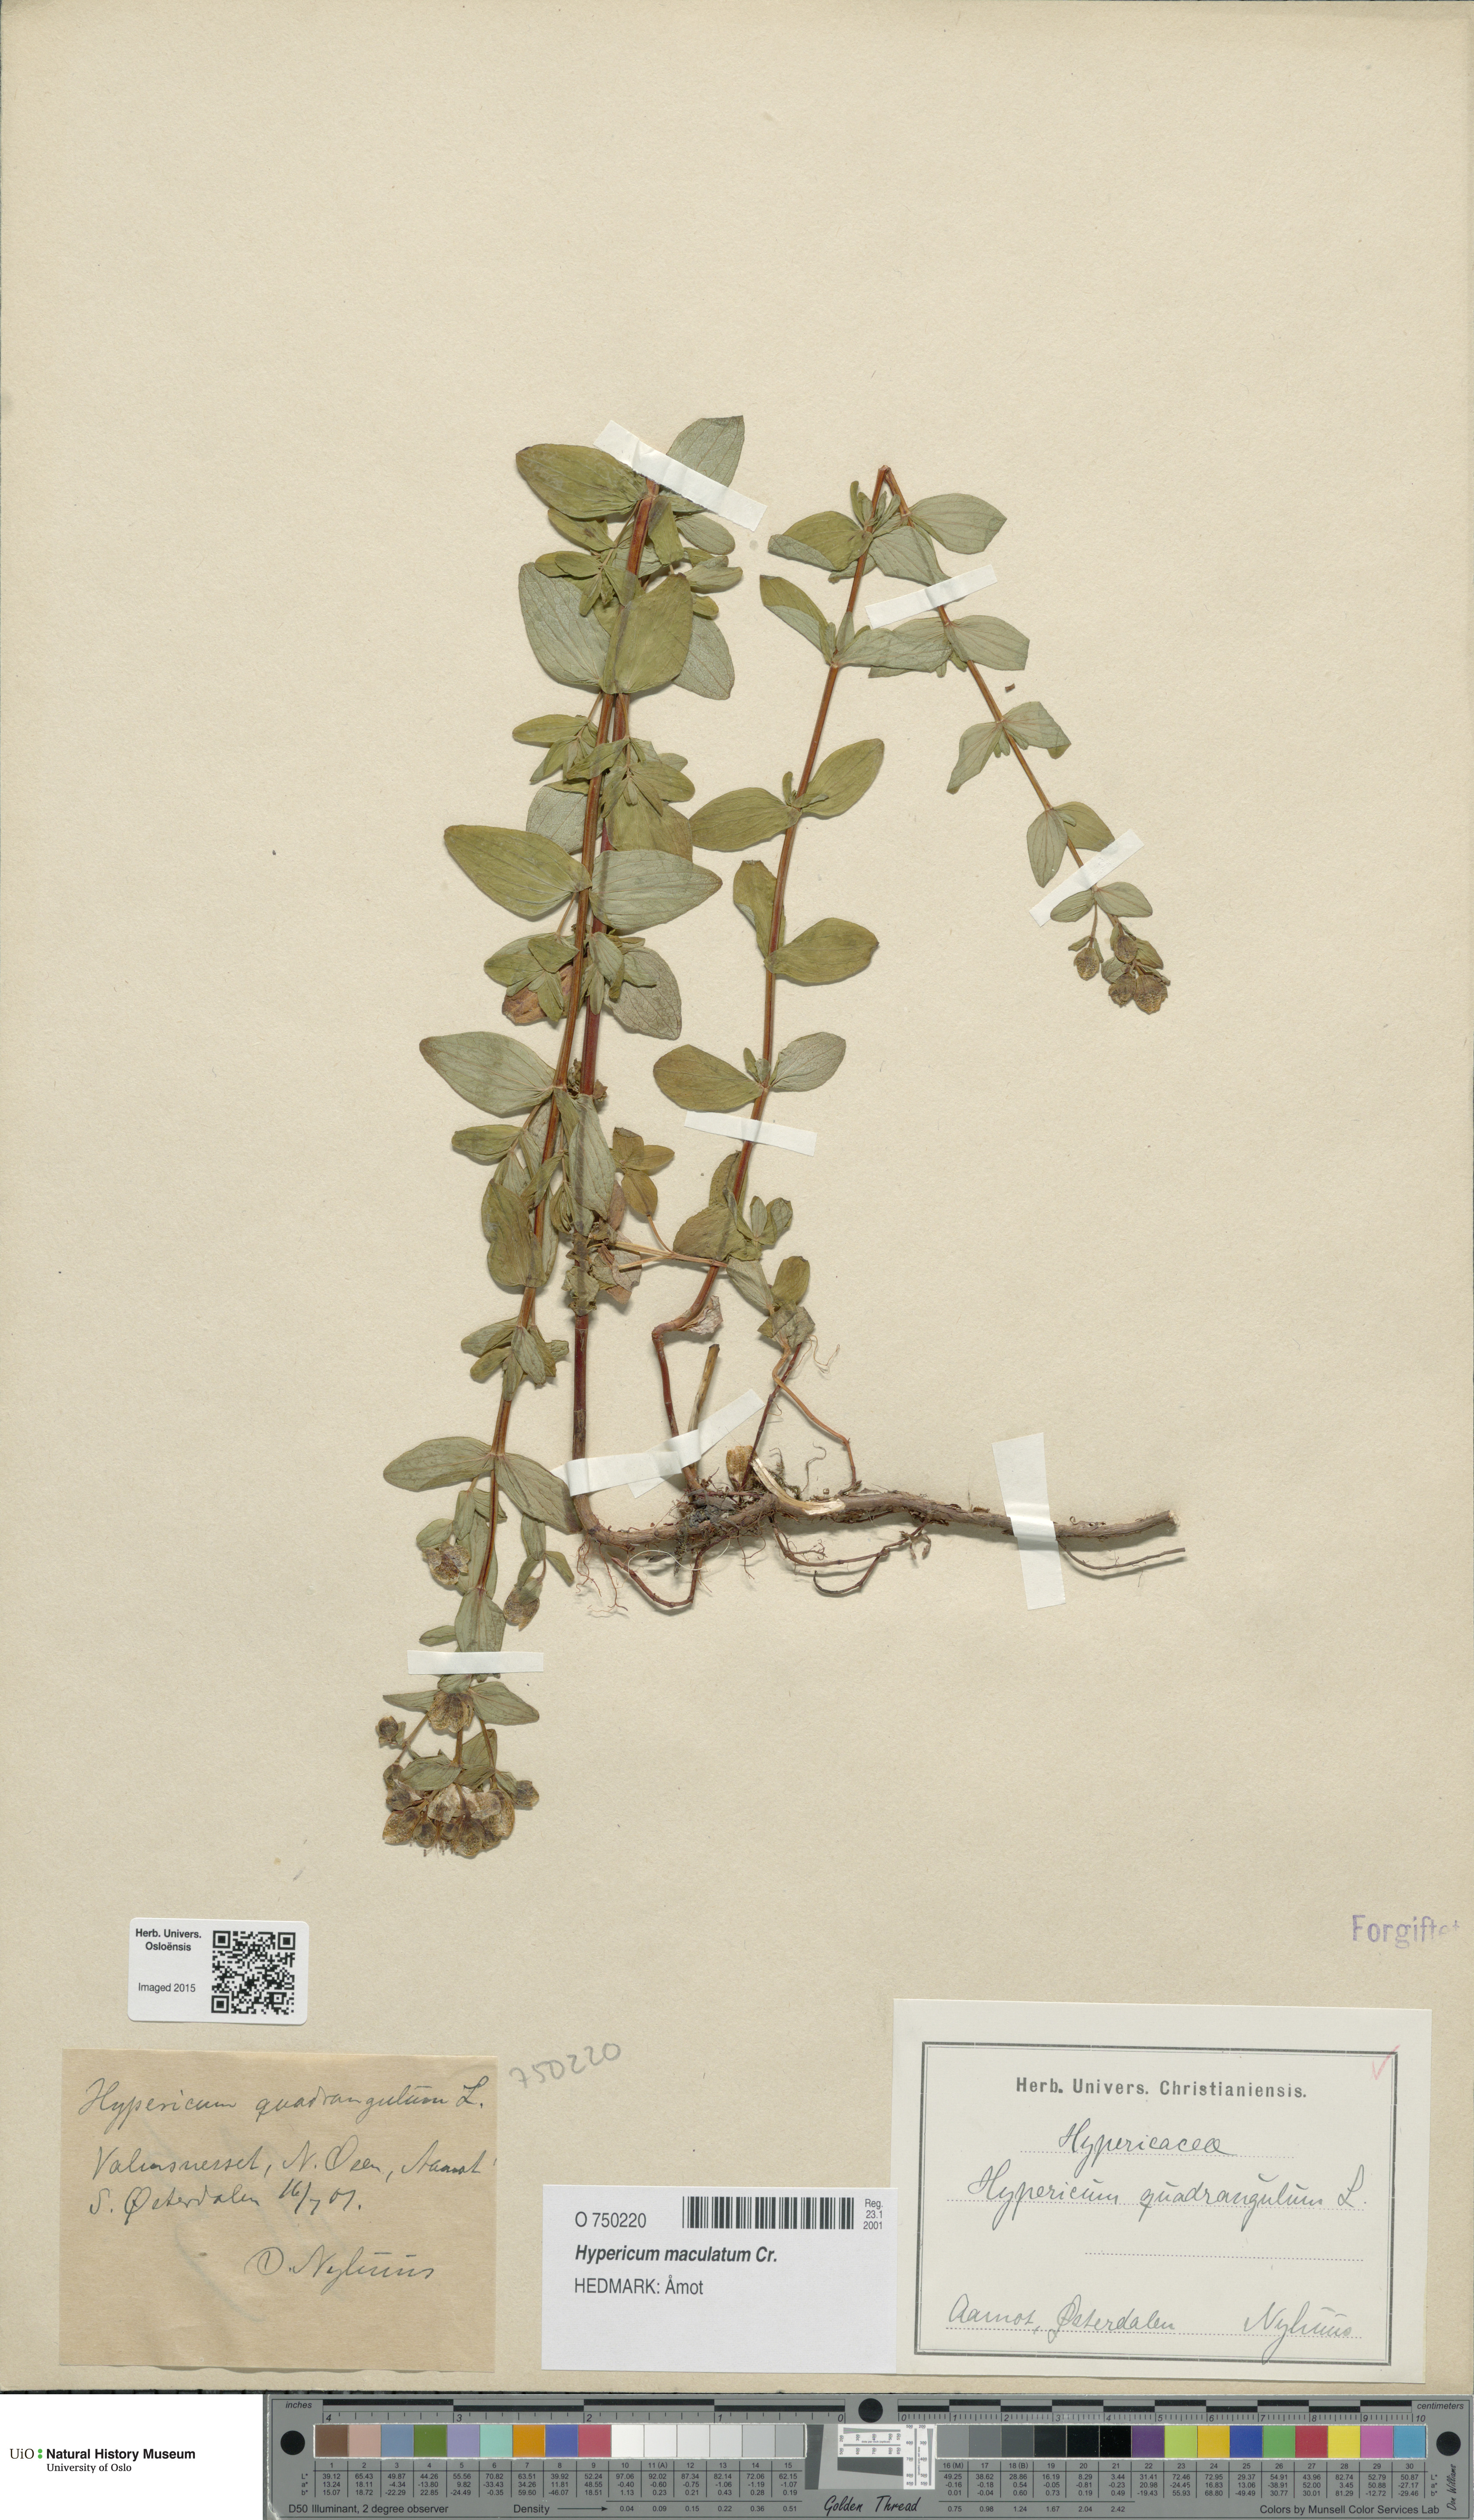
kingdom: Plantae
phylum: Tracheophyta
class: Magnoliopsida
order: Malpighiales
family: Hypericaceae
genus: Hypericum
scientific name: Hypericum maculatum
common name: Imperforate st. john's-wort
